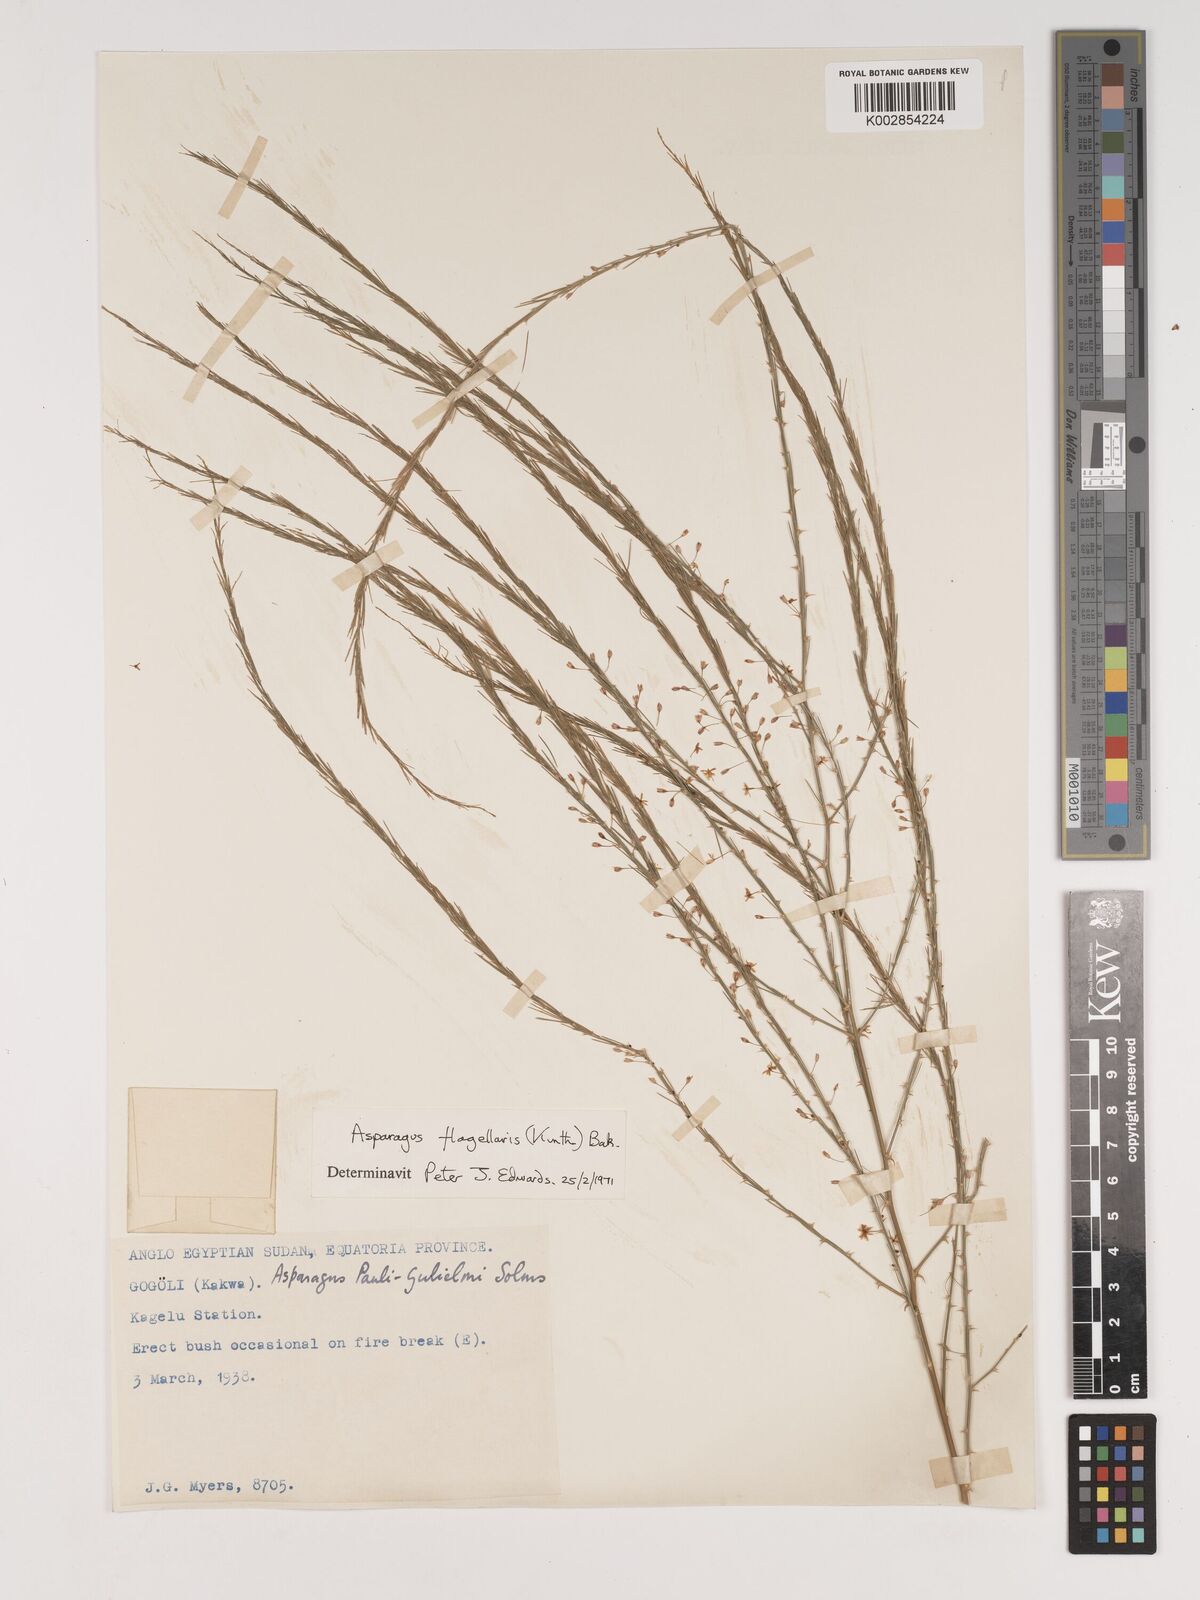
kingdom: Plantae
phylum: Tracheophyta
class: Liliopsida
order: Asparagales
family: Asparagaceae
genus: Asparagus
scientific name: Asparagus flagellaris
